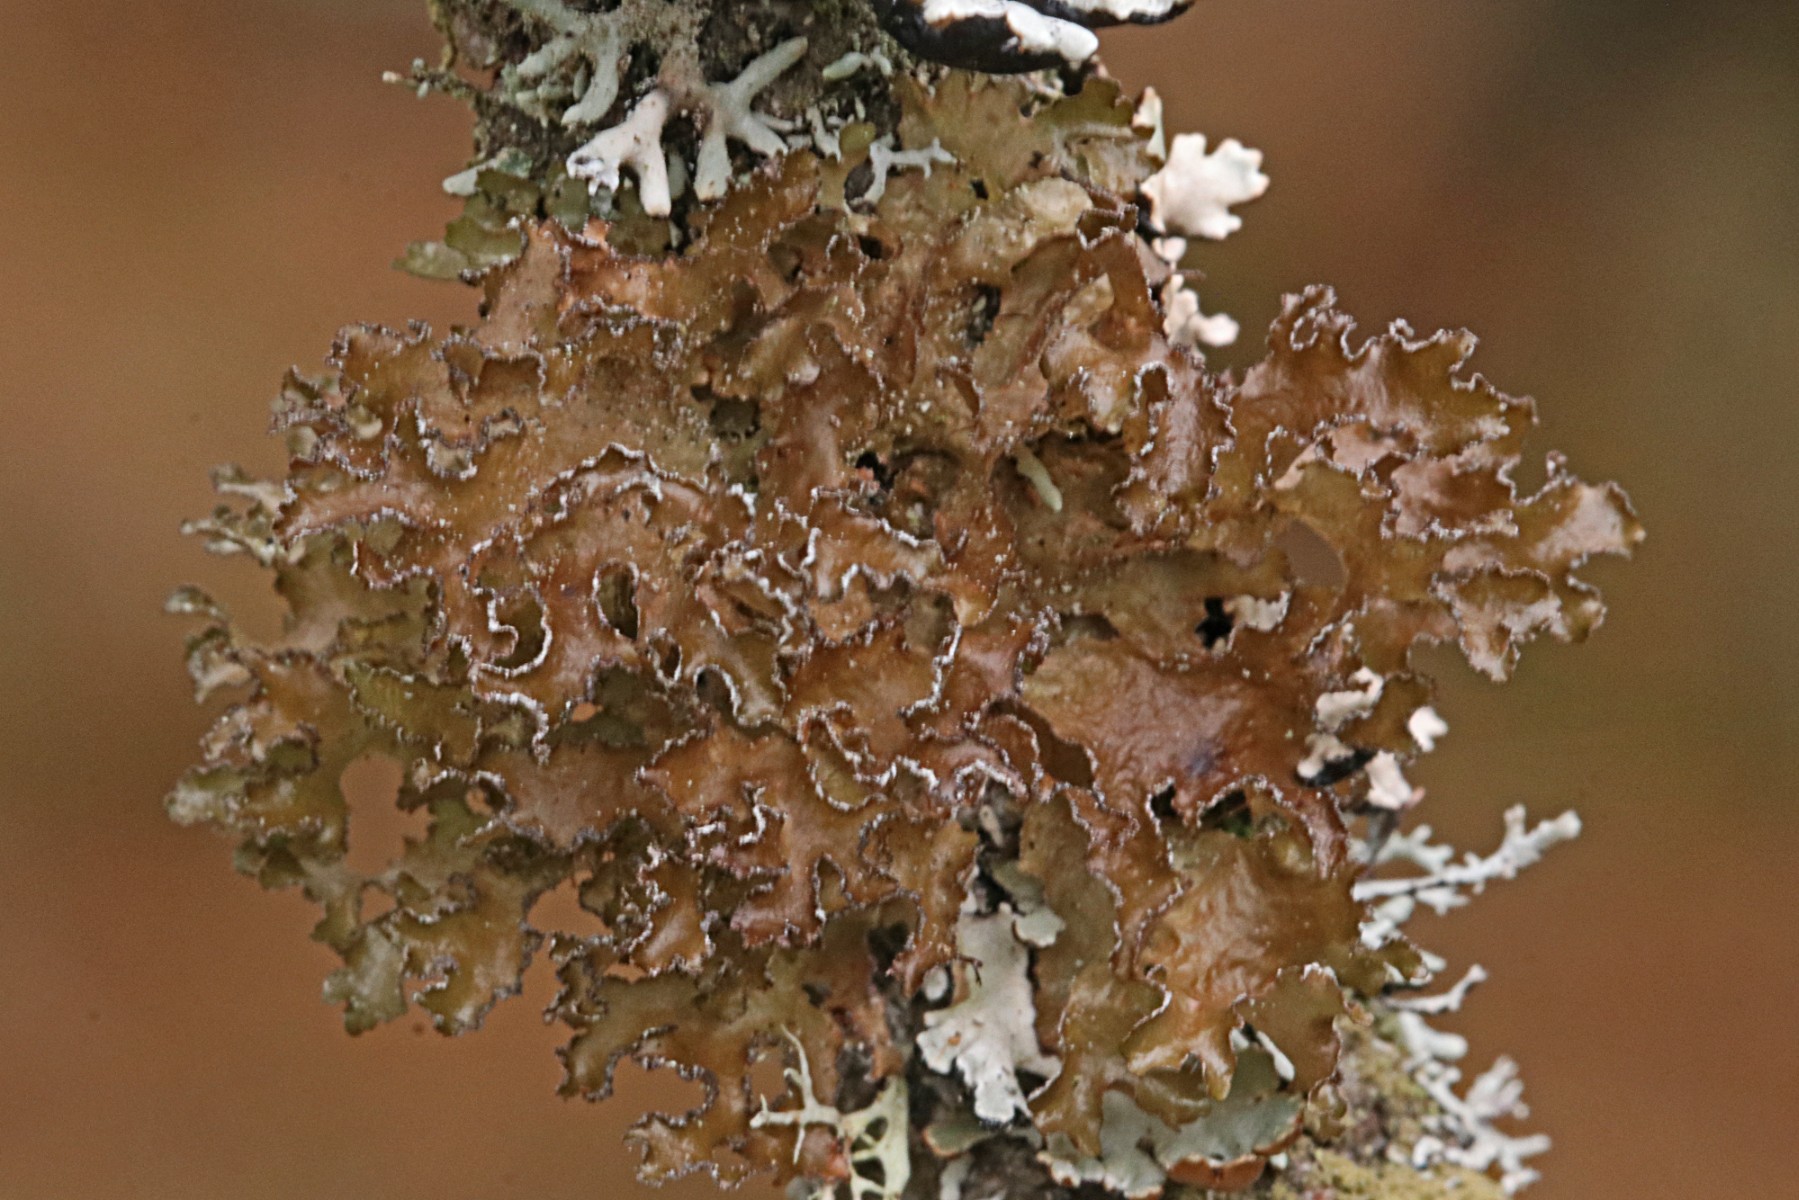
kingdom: Fungi
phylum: Ascomycota
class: Lecanoromycetes
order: Lecanorales
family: Parmeliaceae
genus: Nephromopsis
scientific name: Nephromopsis chlorophylla
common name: olivenbrun kruslav
